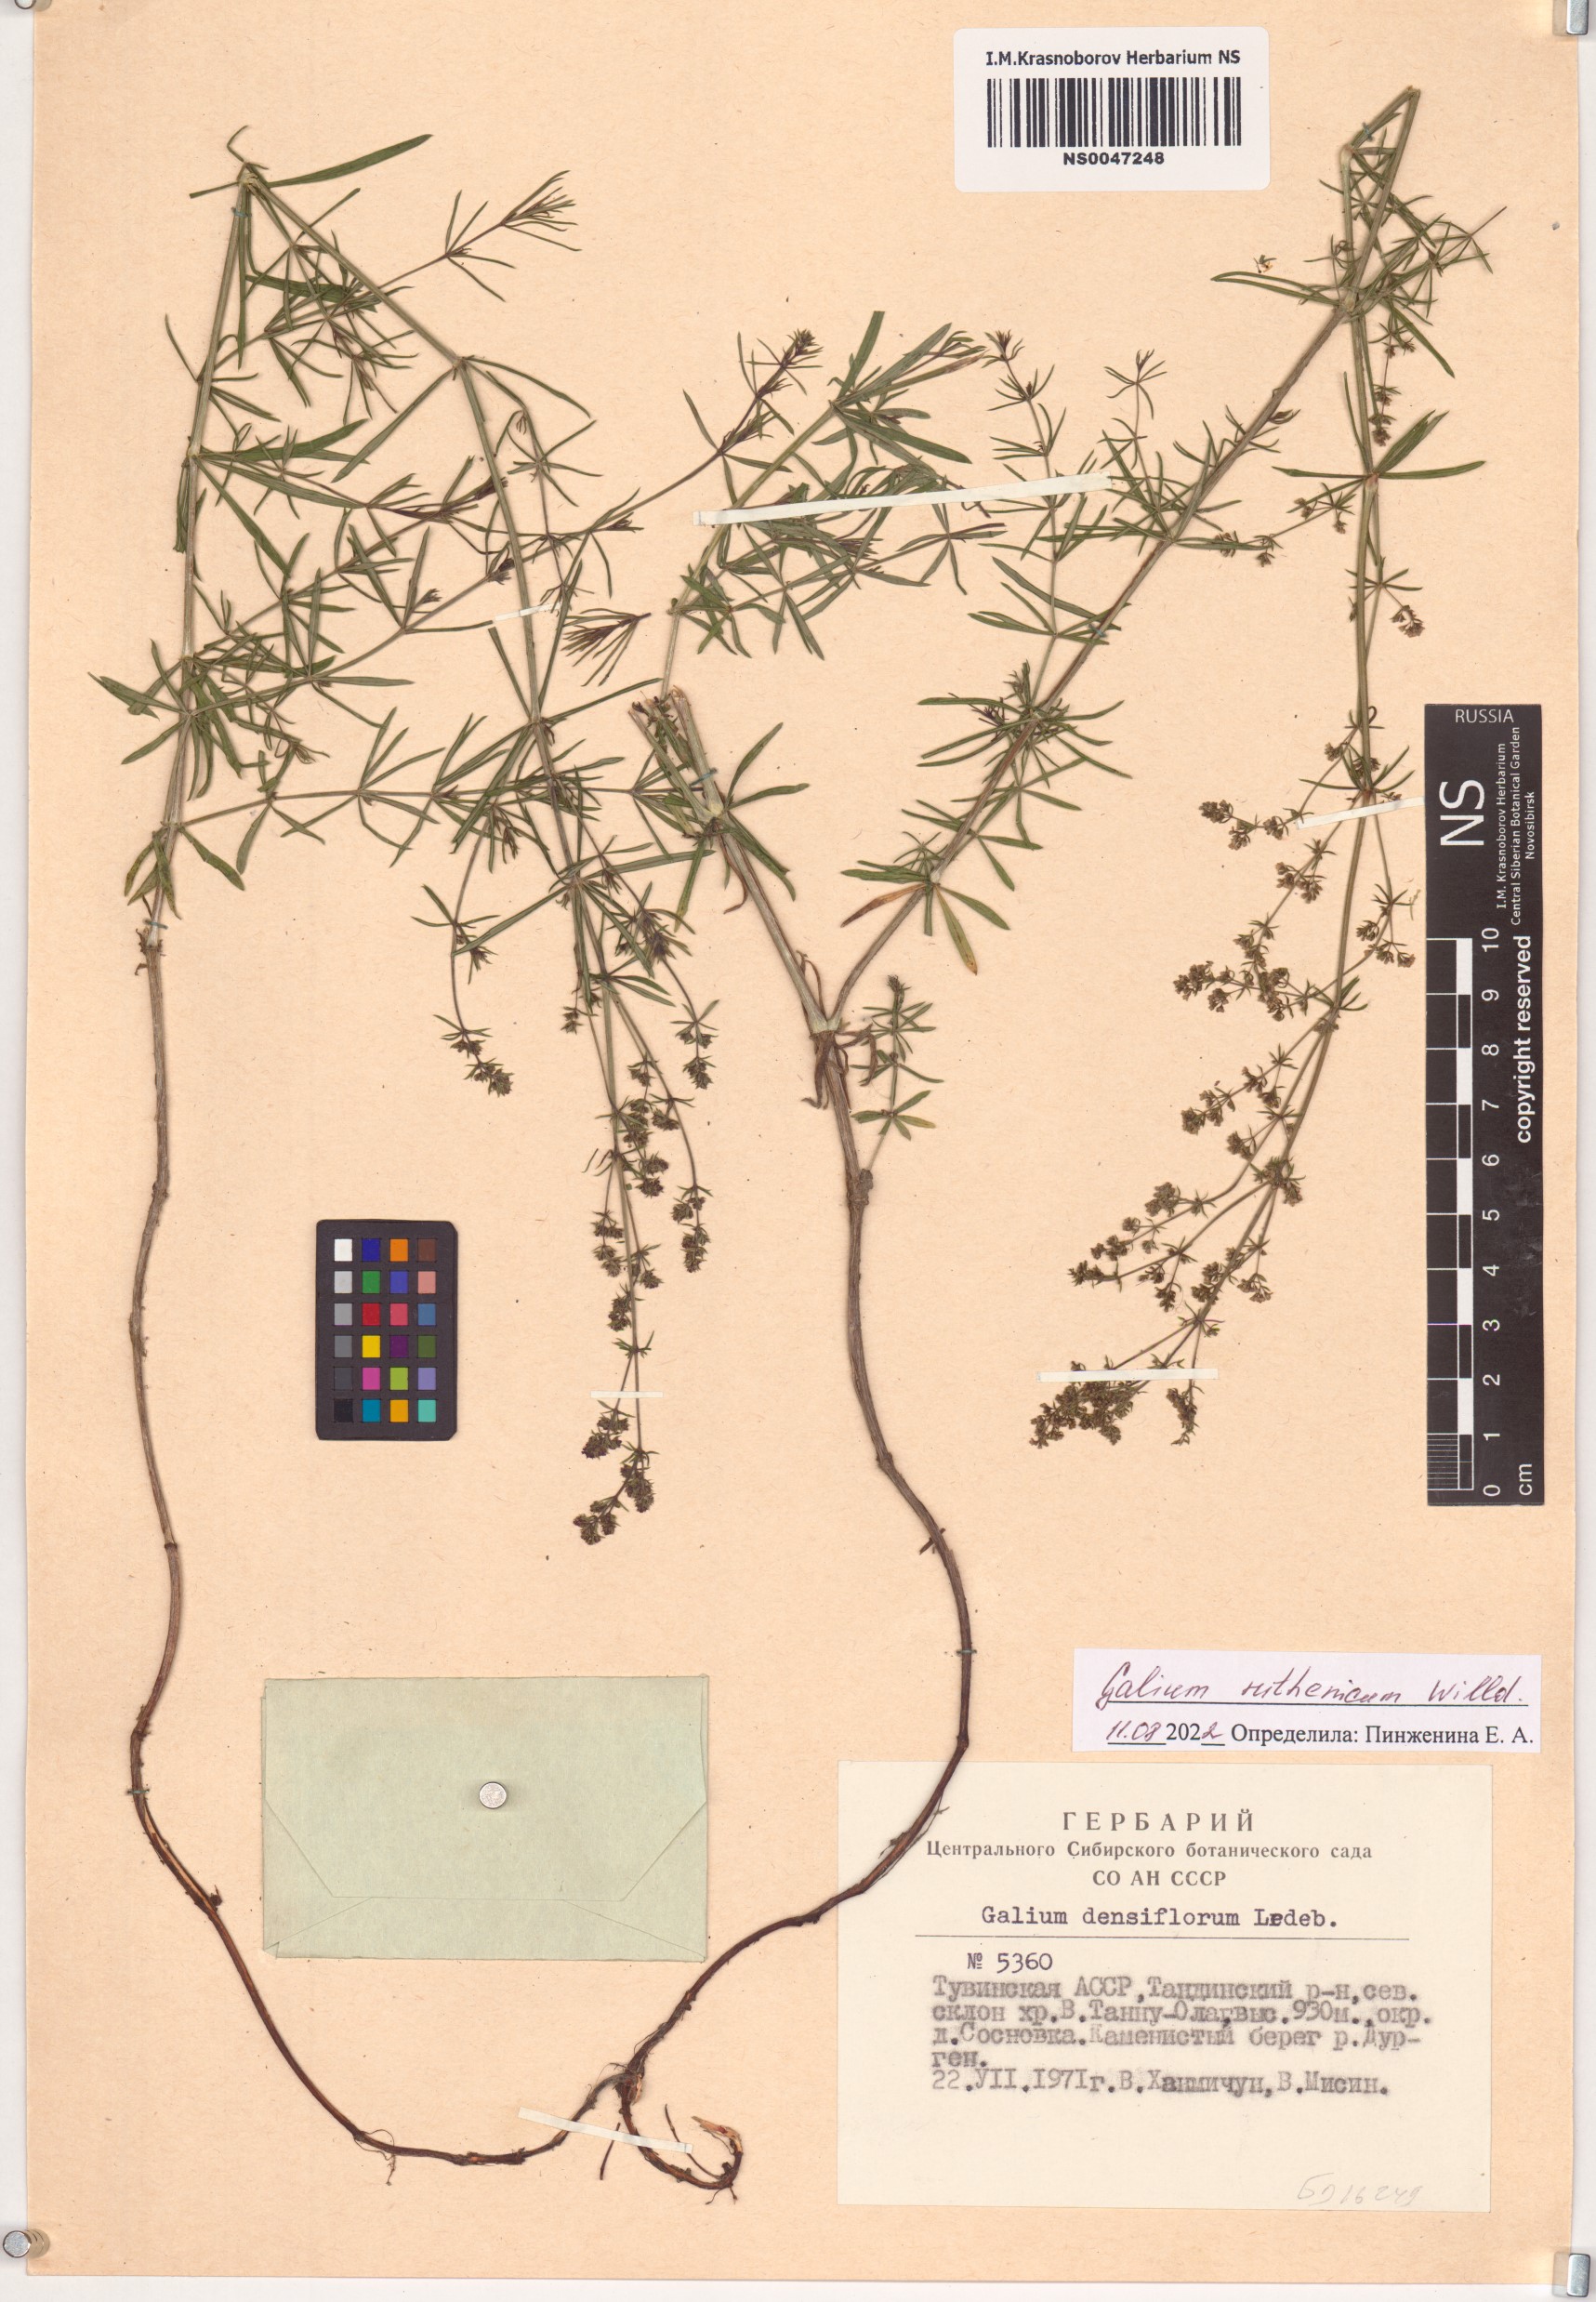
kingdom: Plantae
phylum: Tracheophyta
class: Magnoliopsida
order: Gentianales
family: Rubiaceae
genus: Galium
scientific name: Galium verum
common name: Lady's bedstraw
